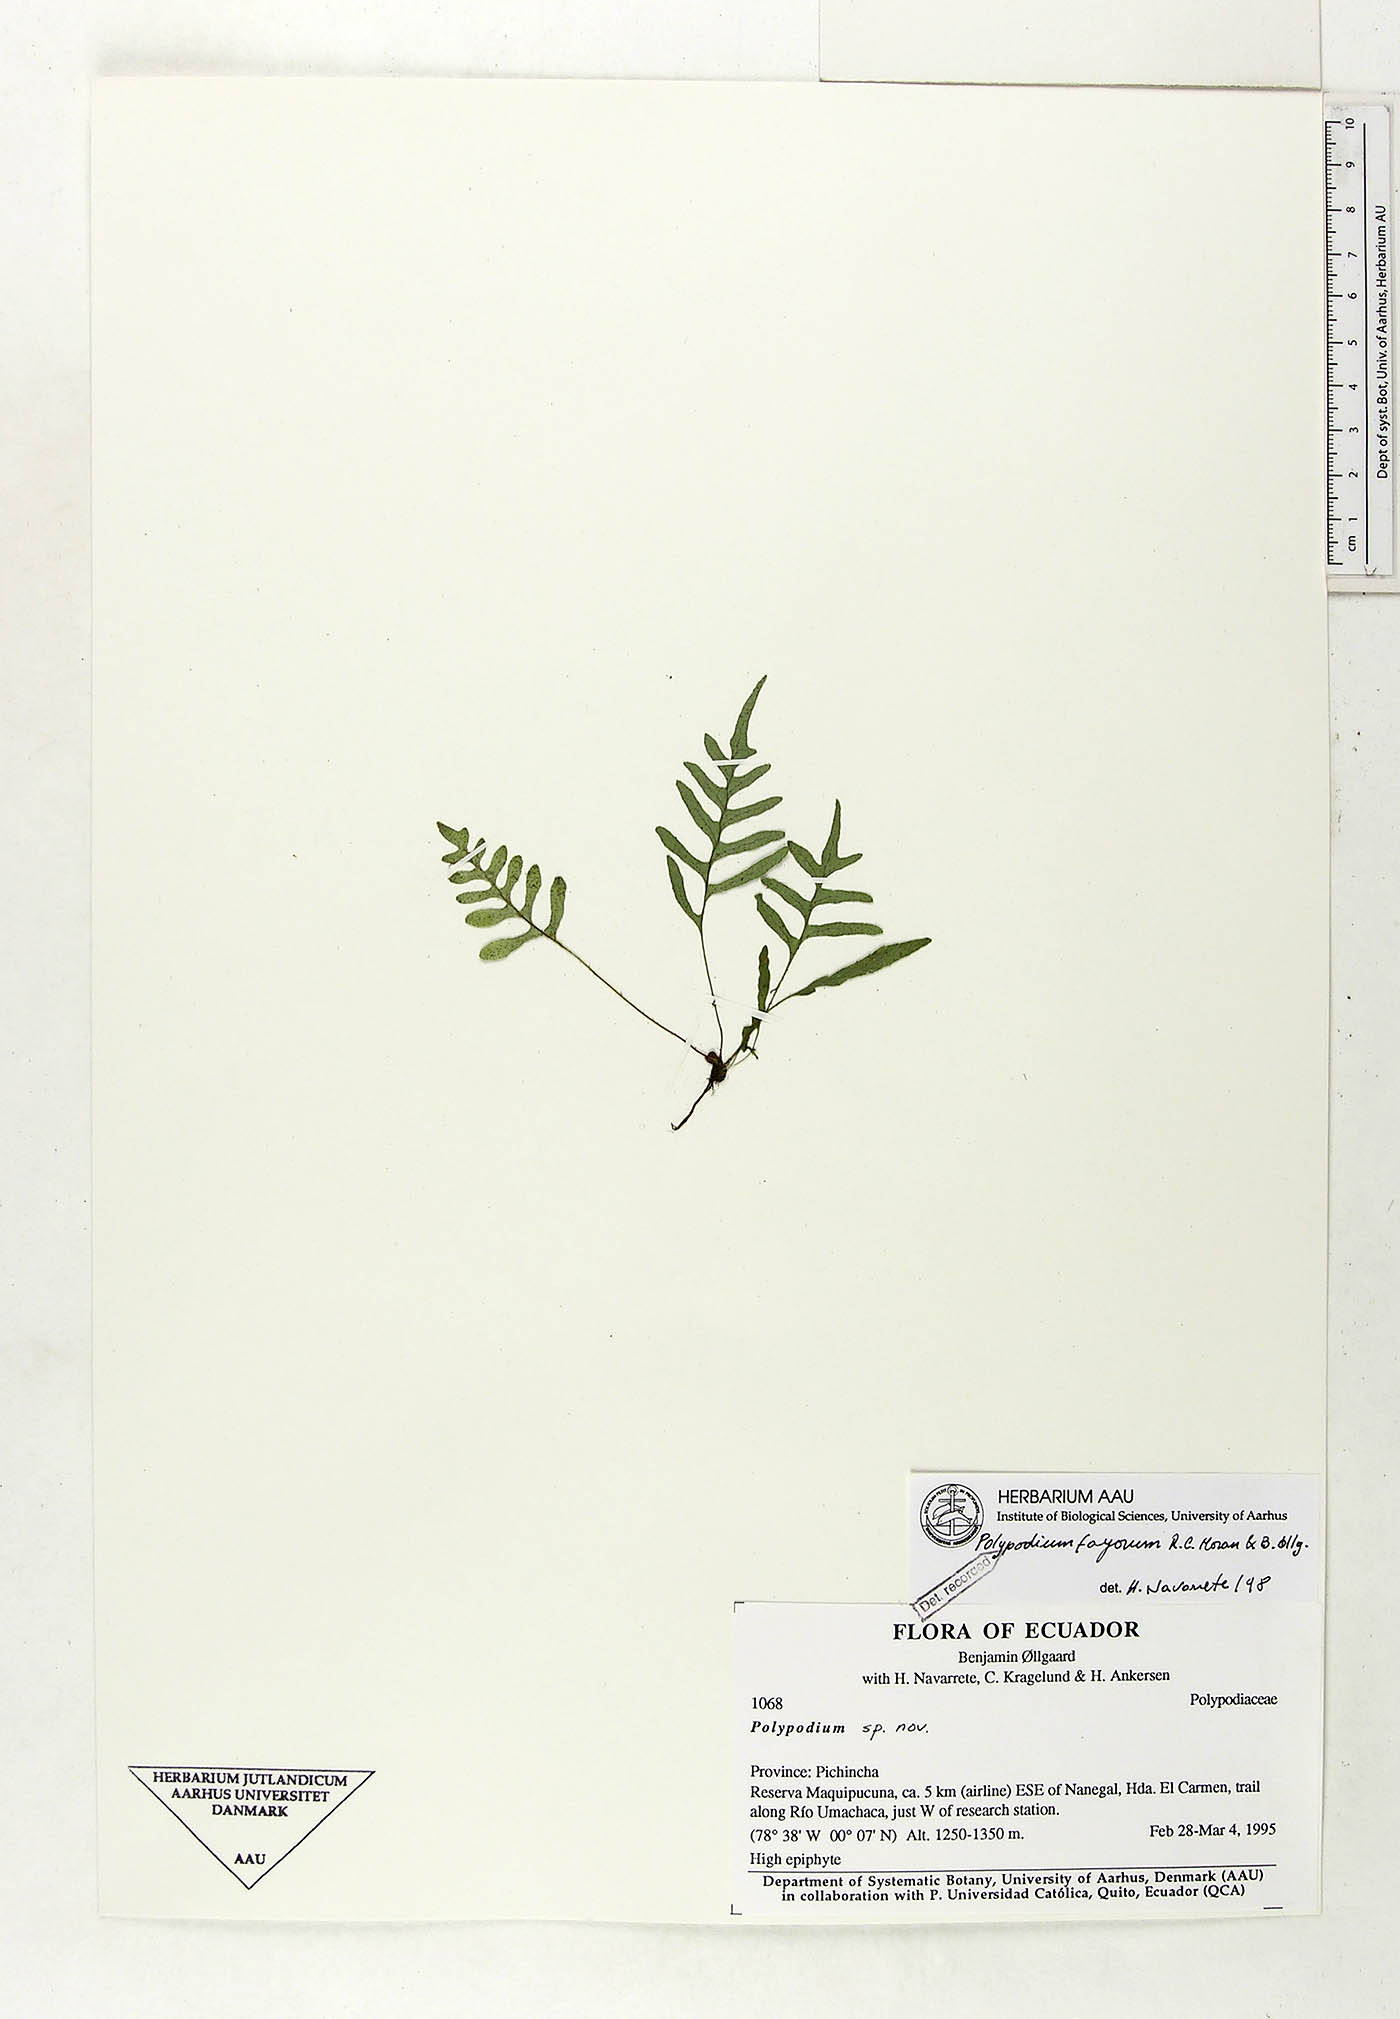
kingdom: Plantae
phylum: Tracheophyta
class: Polypodiopsida
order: Polypodiales
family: Polypodiaceae
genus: Pleopeltis
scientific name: Pleopeltis fayorum
